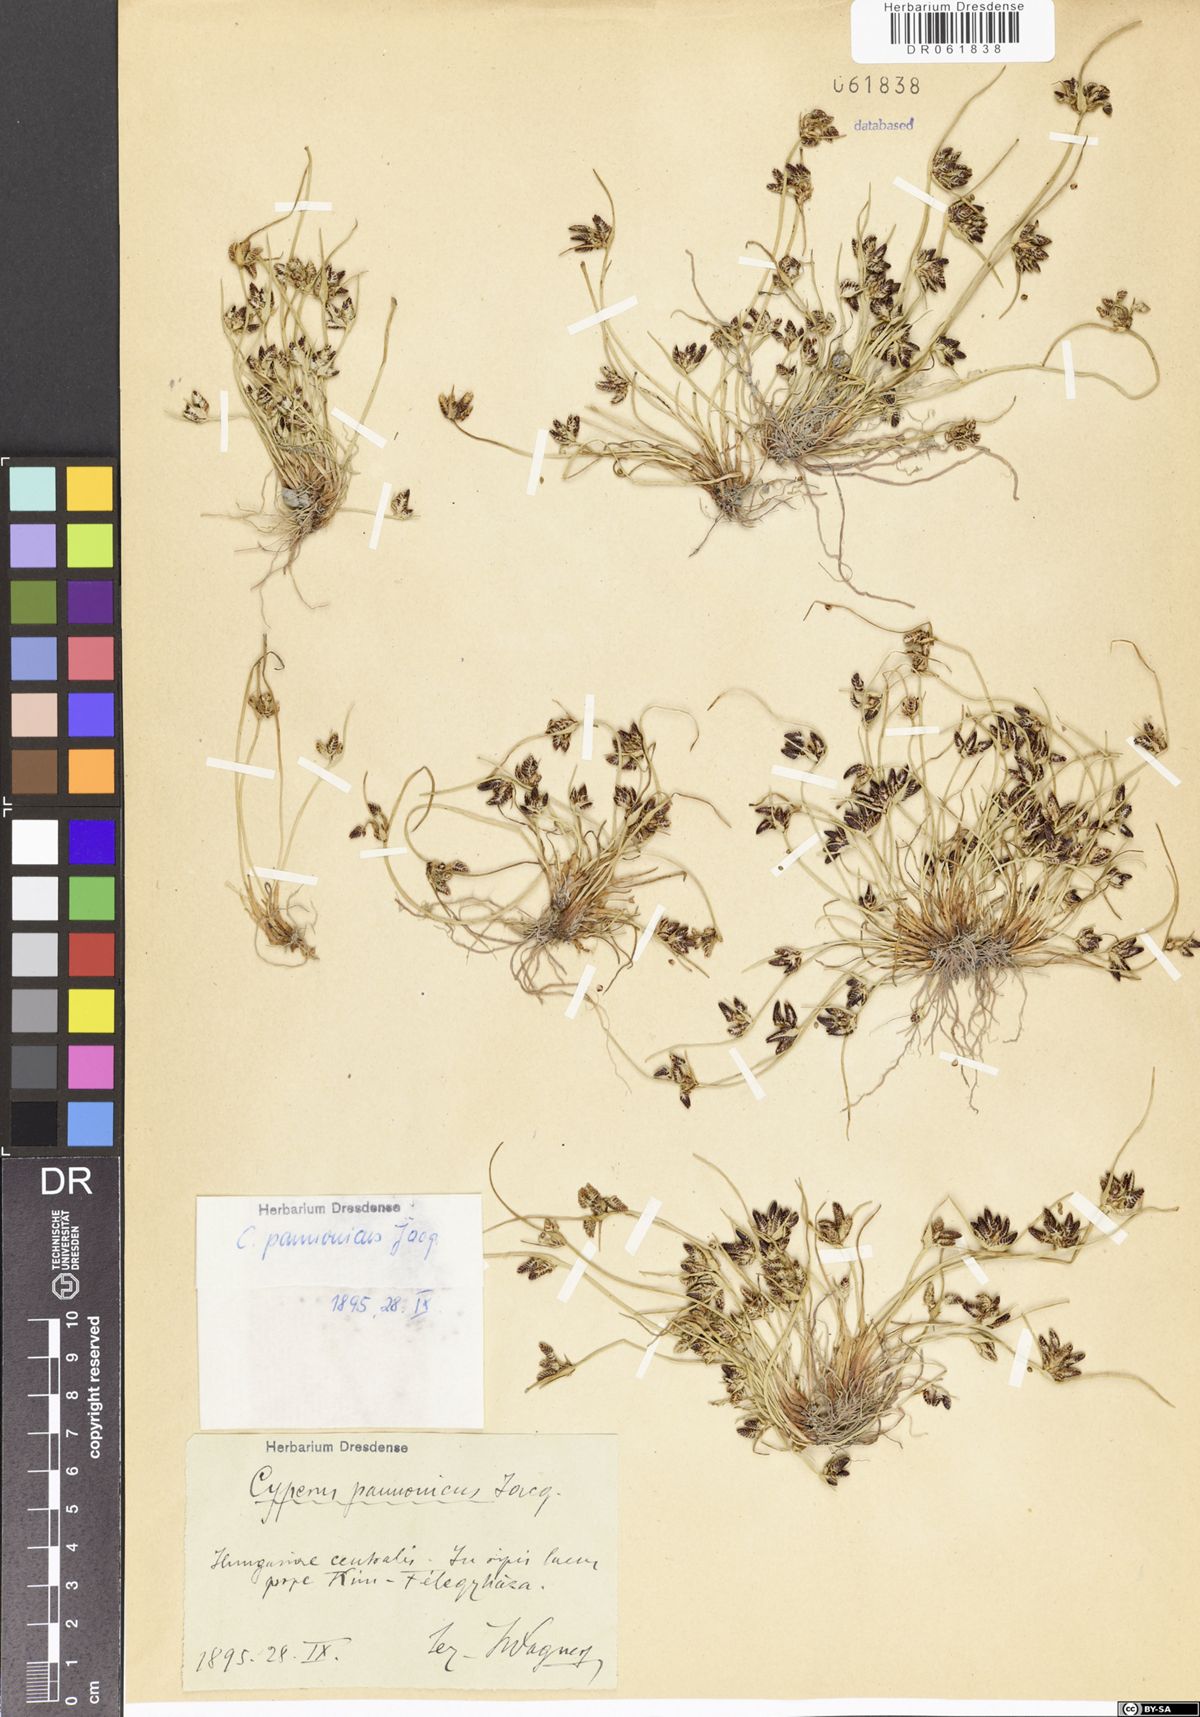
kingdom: Plantae
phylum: Tracheophyta
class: Liliopsida
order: Poales
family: Cyperaceae
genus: Cyperus
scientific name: Cyperus pannonicus
